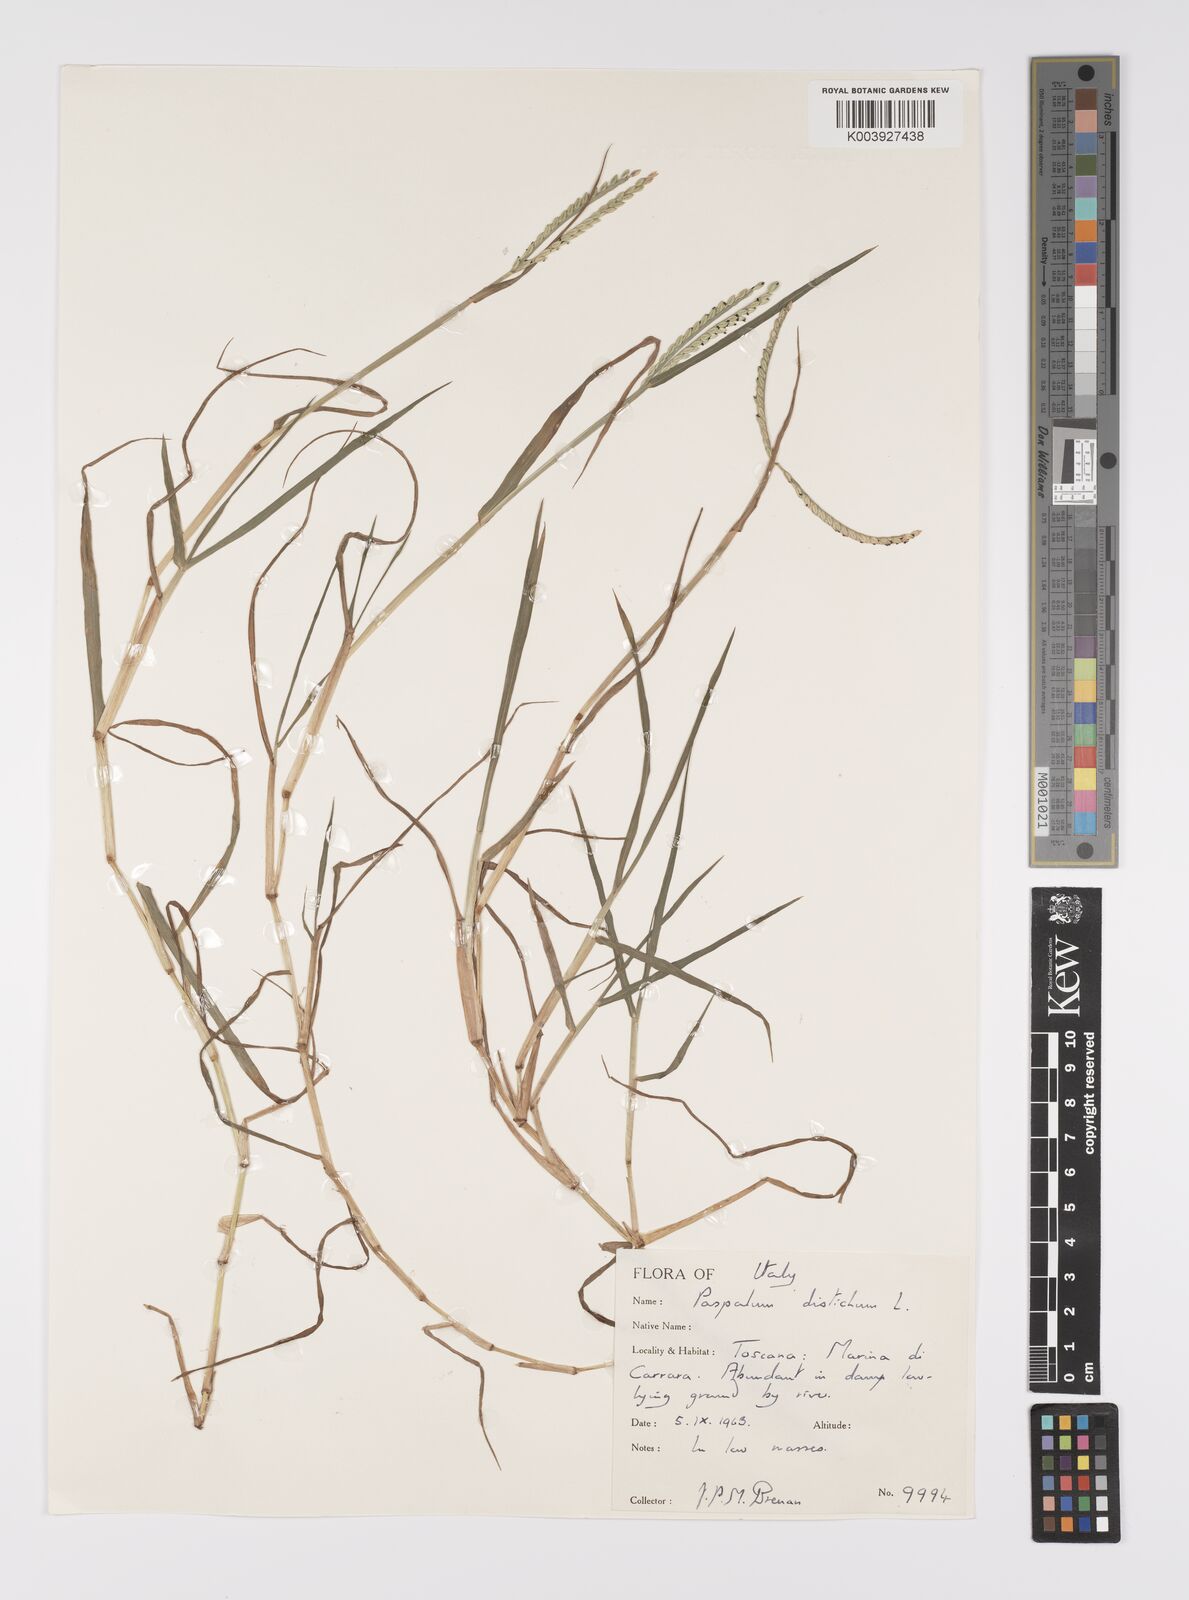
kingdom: Plantae
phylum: Tracheophyta
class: Liliopsida
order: Poales
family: Poaceae
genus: Paspalum
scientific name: Paspalum distichum
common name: Knotgrass
